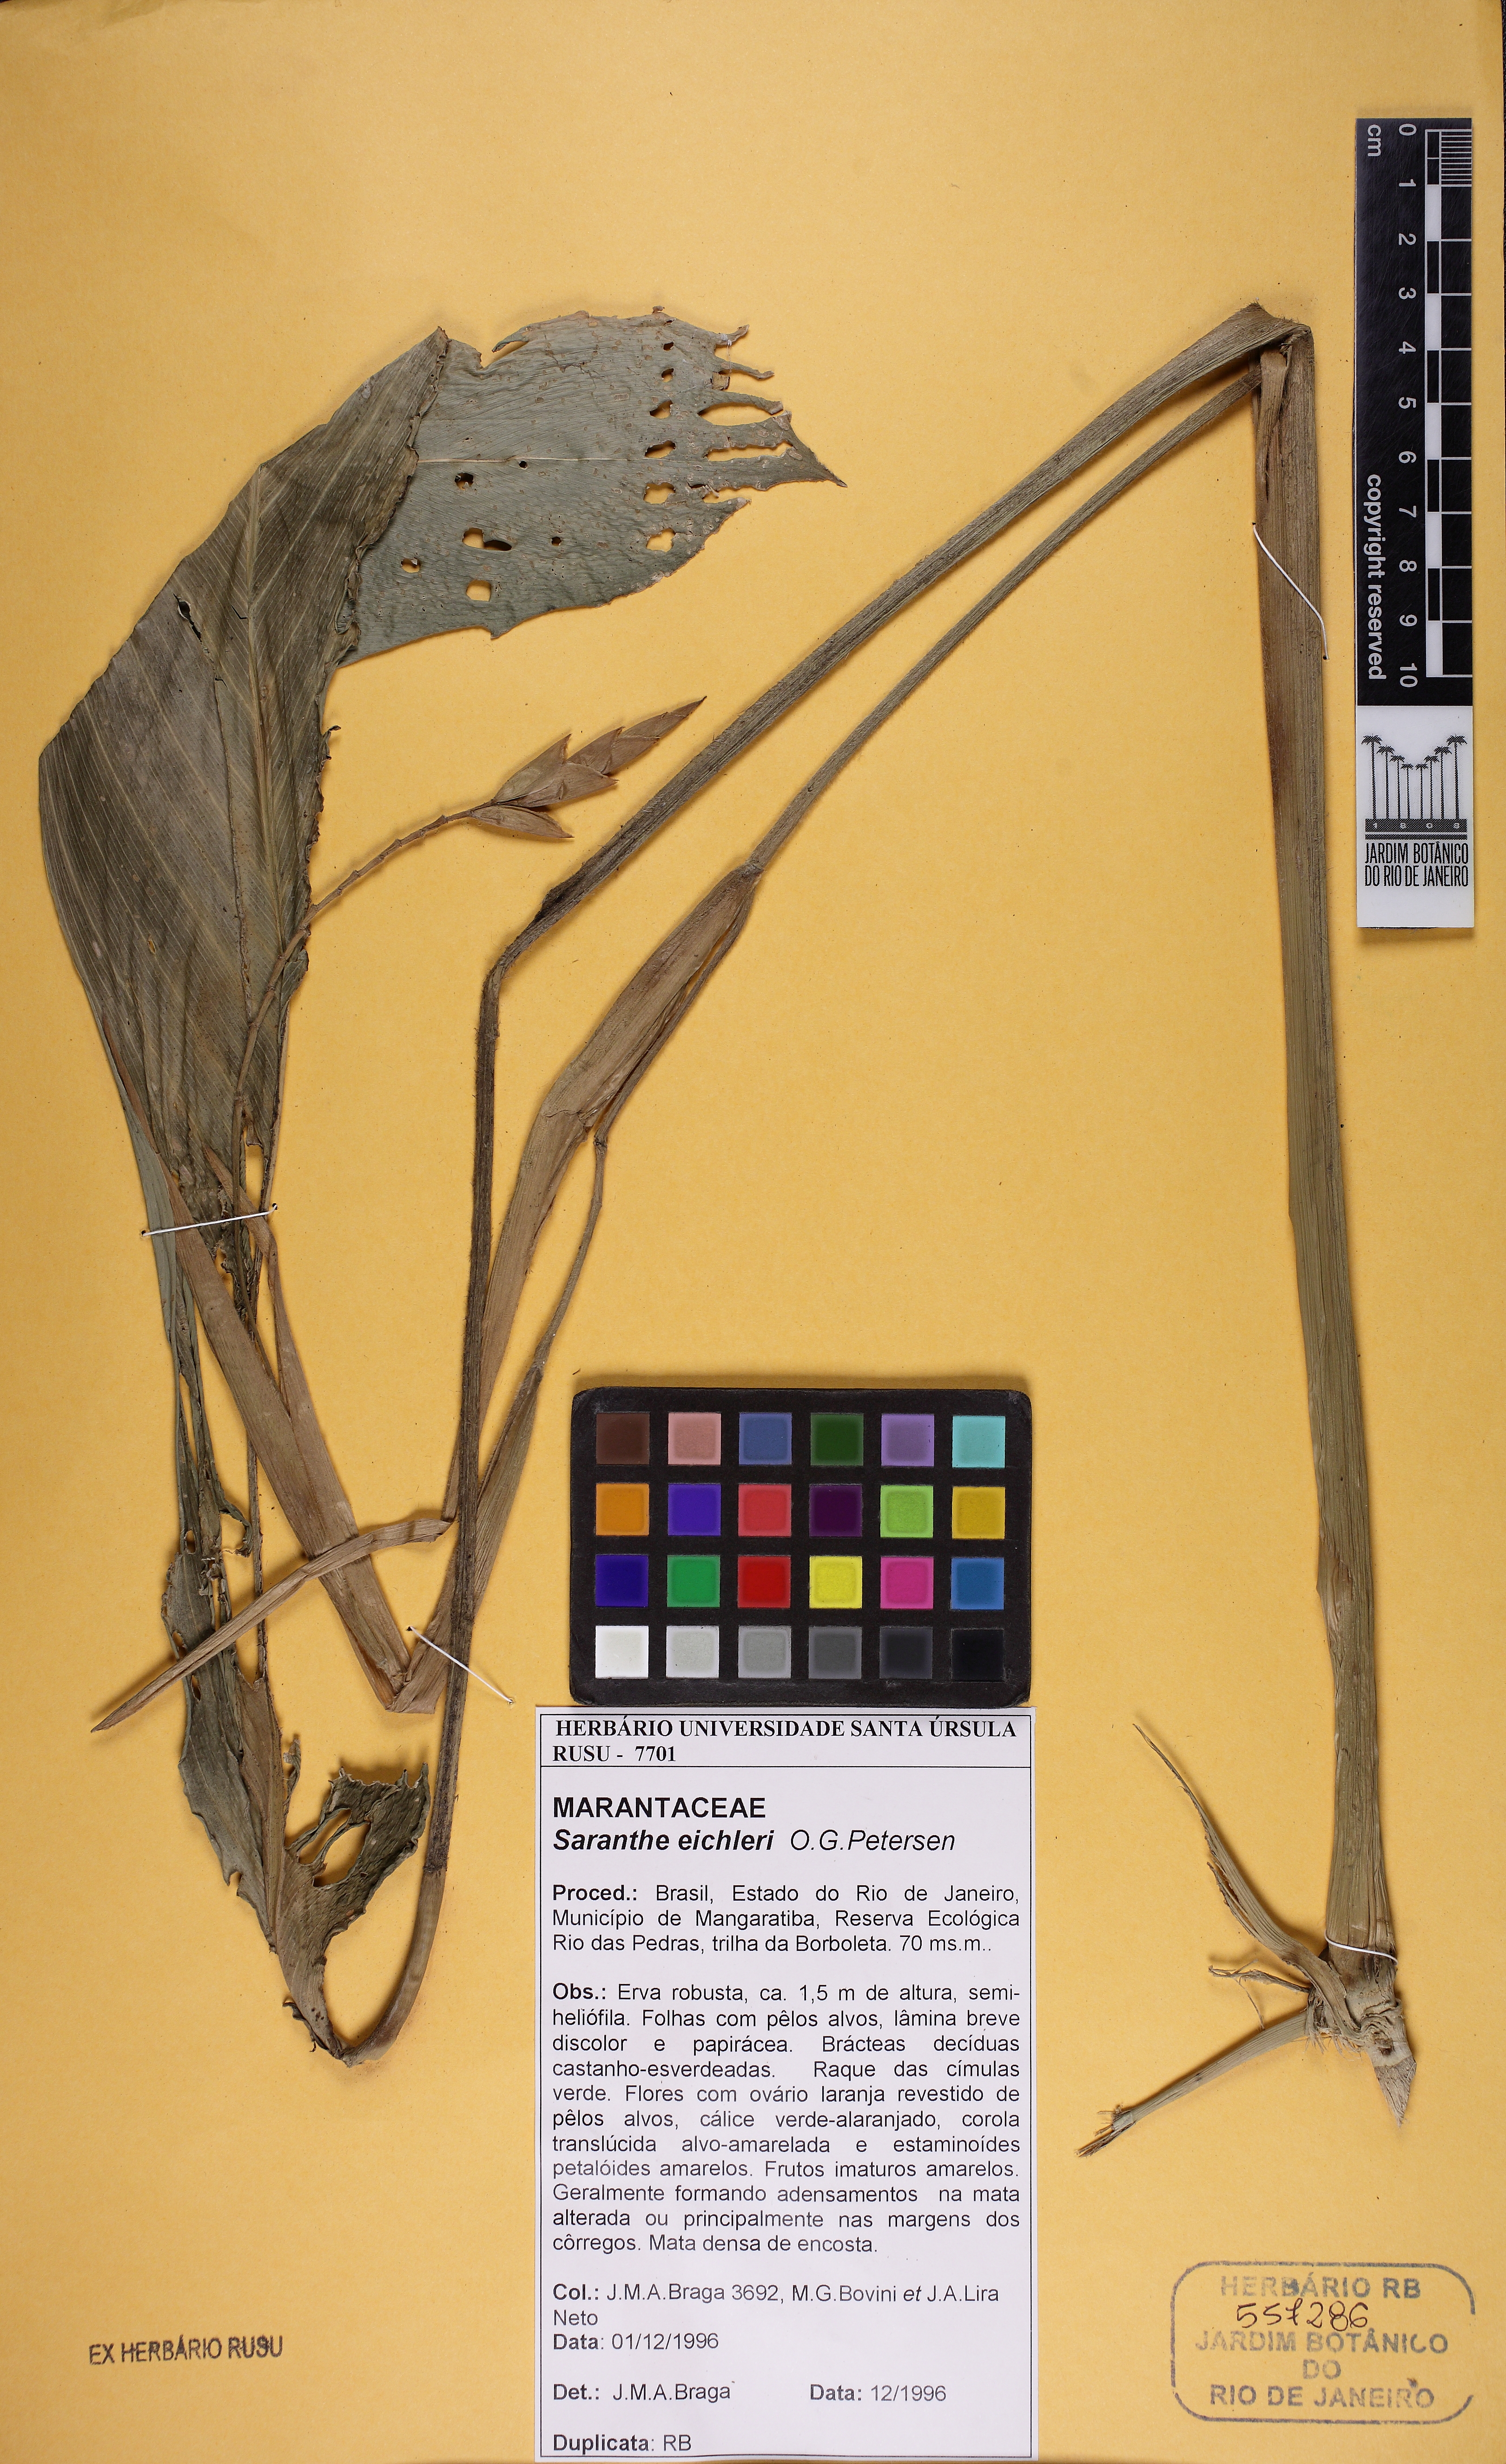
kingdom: Plantae
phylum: Tracheophyta
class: Liliopsida
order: Zingiberales
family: Marantaceae
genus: Saranthe
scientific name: Saranthe eichleri
